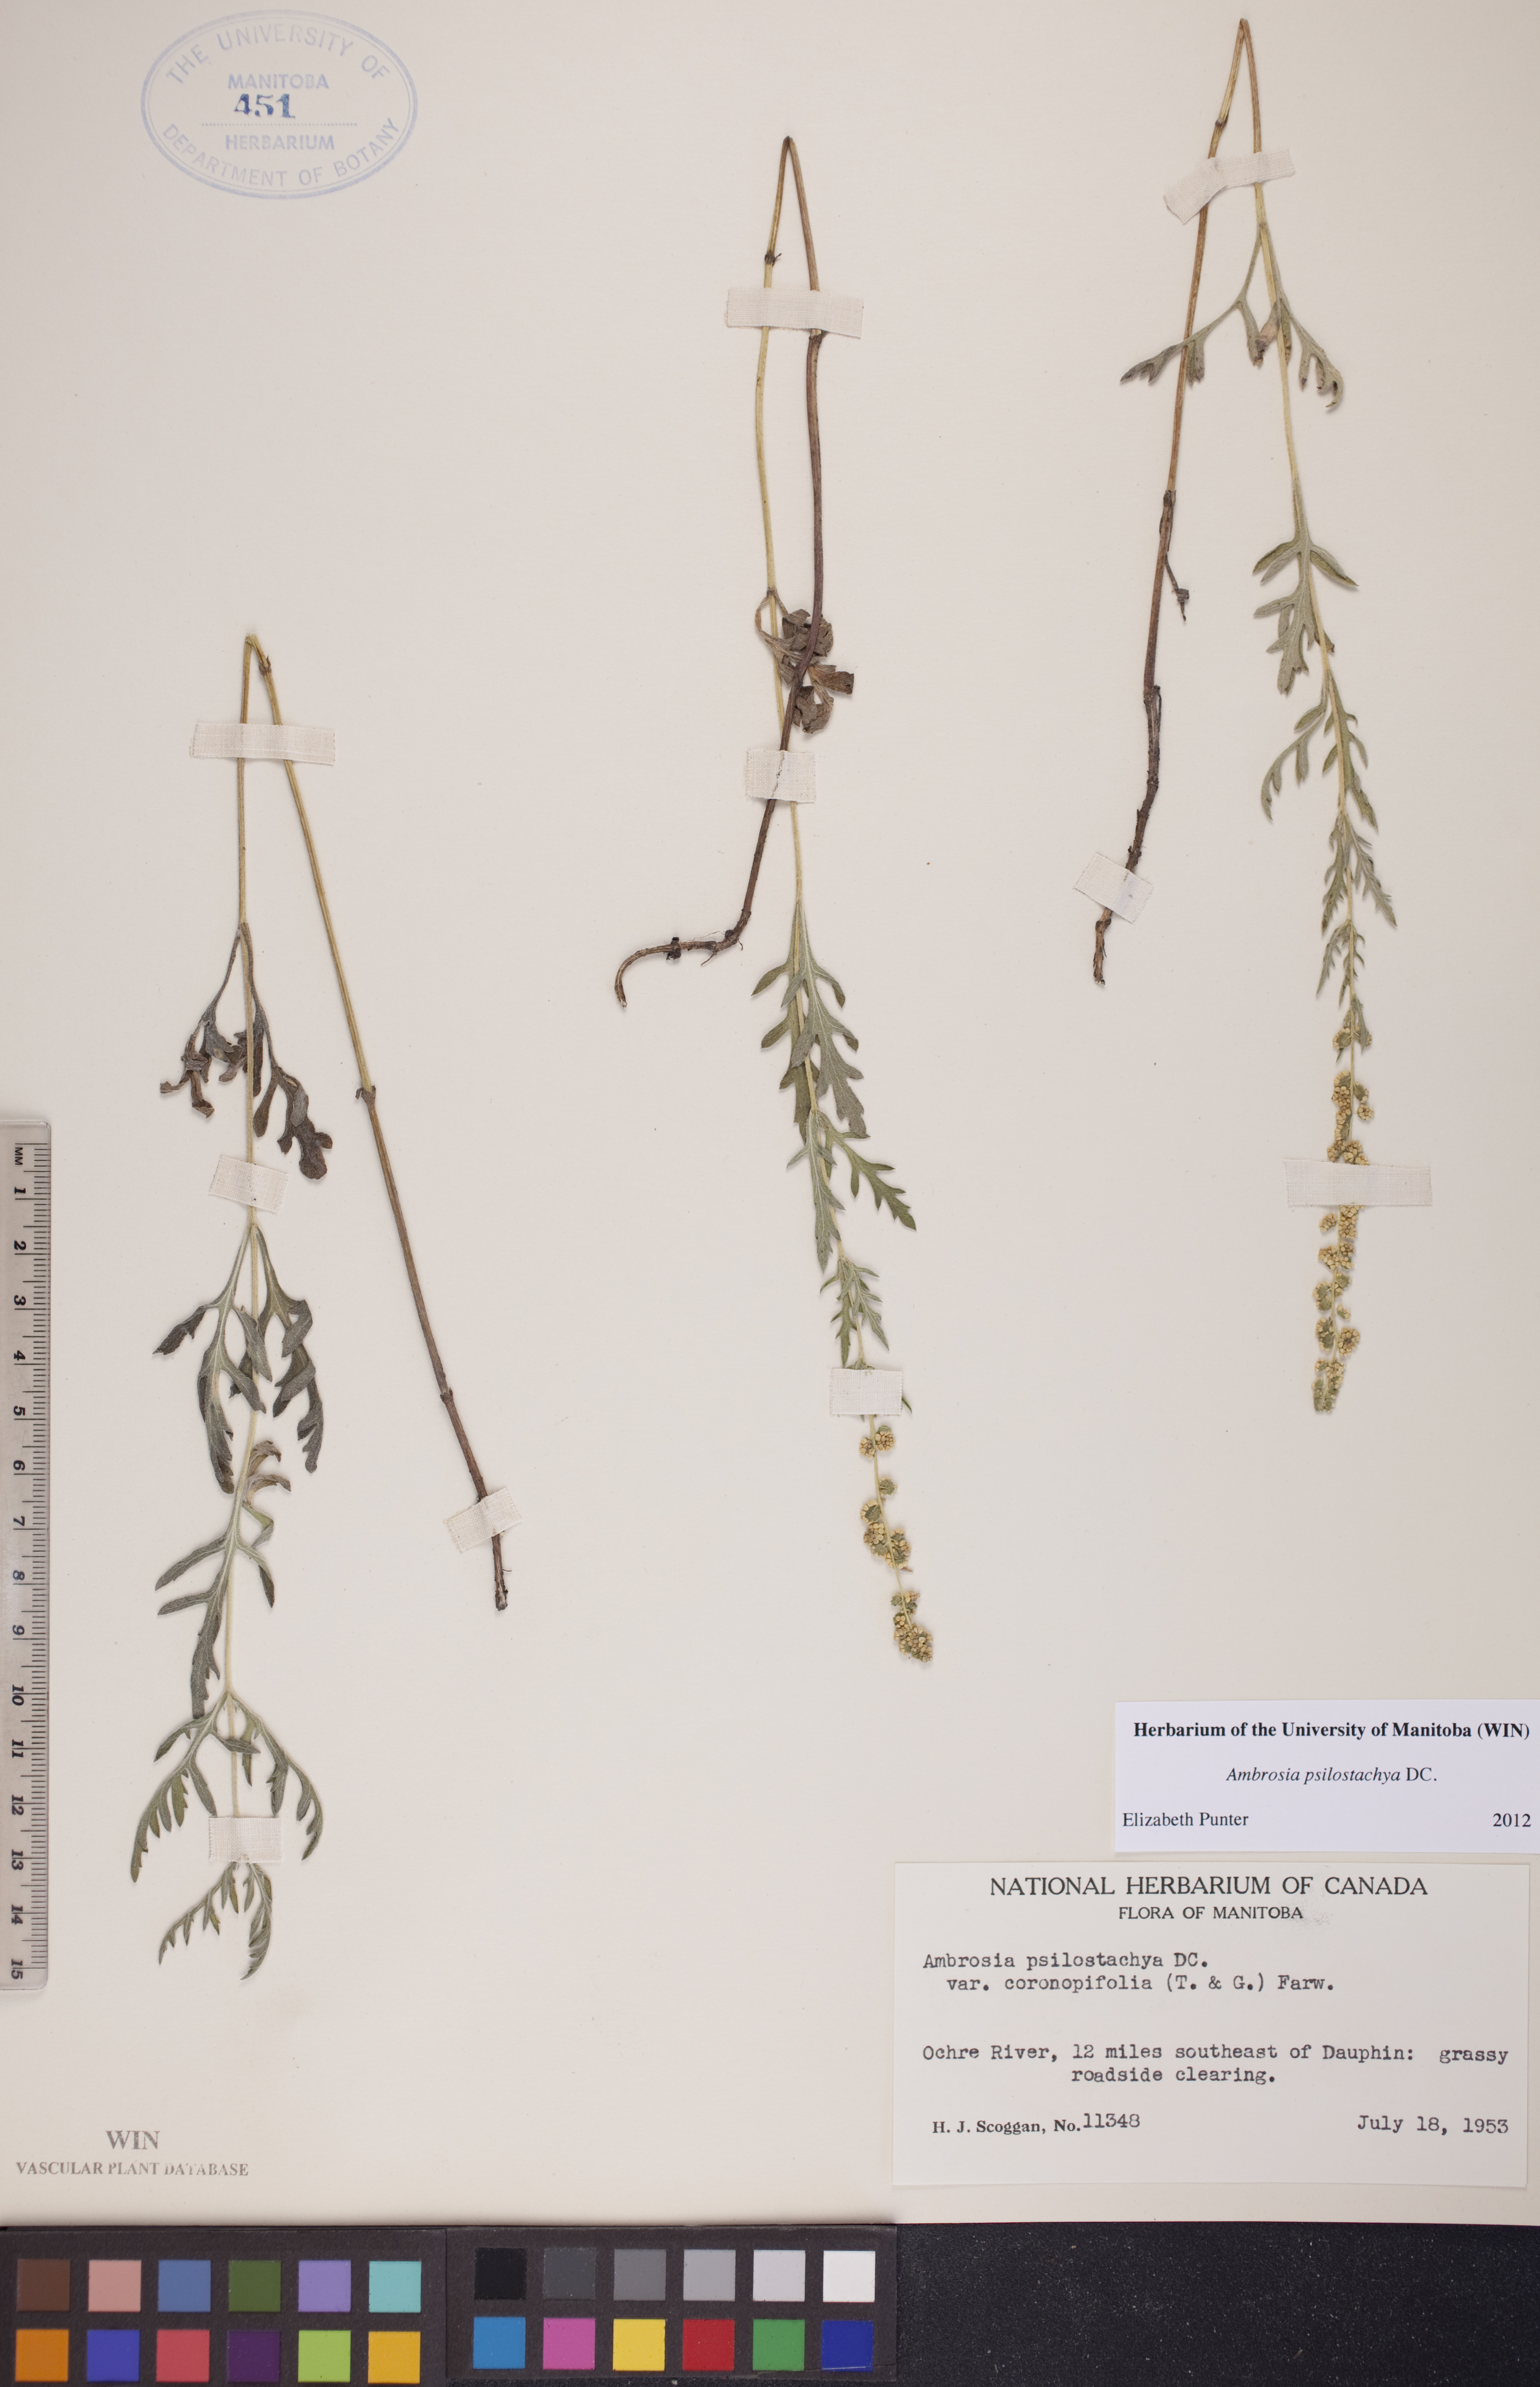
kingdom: Plantae
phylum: Tracheophyta
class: Magnoliopsida
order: Asterales
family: Asteraceae
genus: Ambrosia
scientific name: Ambrosia psilostachya
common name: Perennial ragweed
